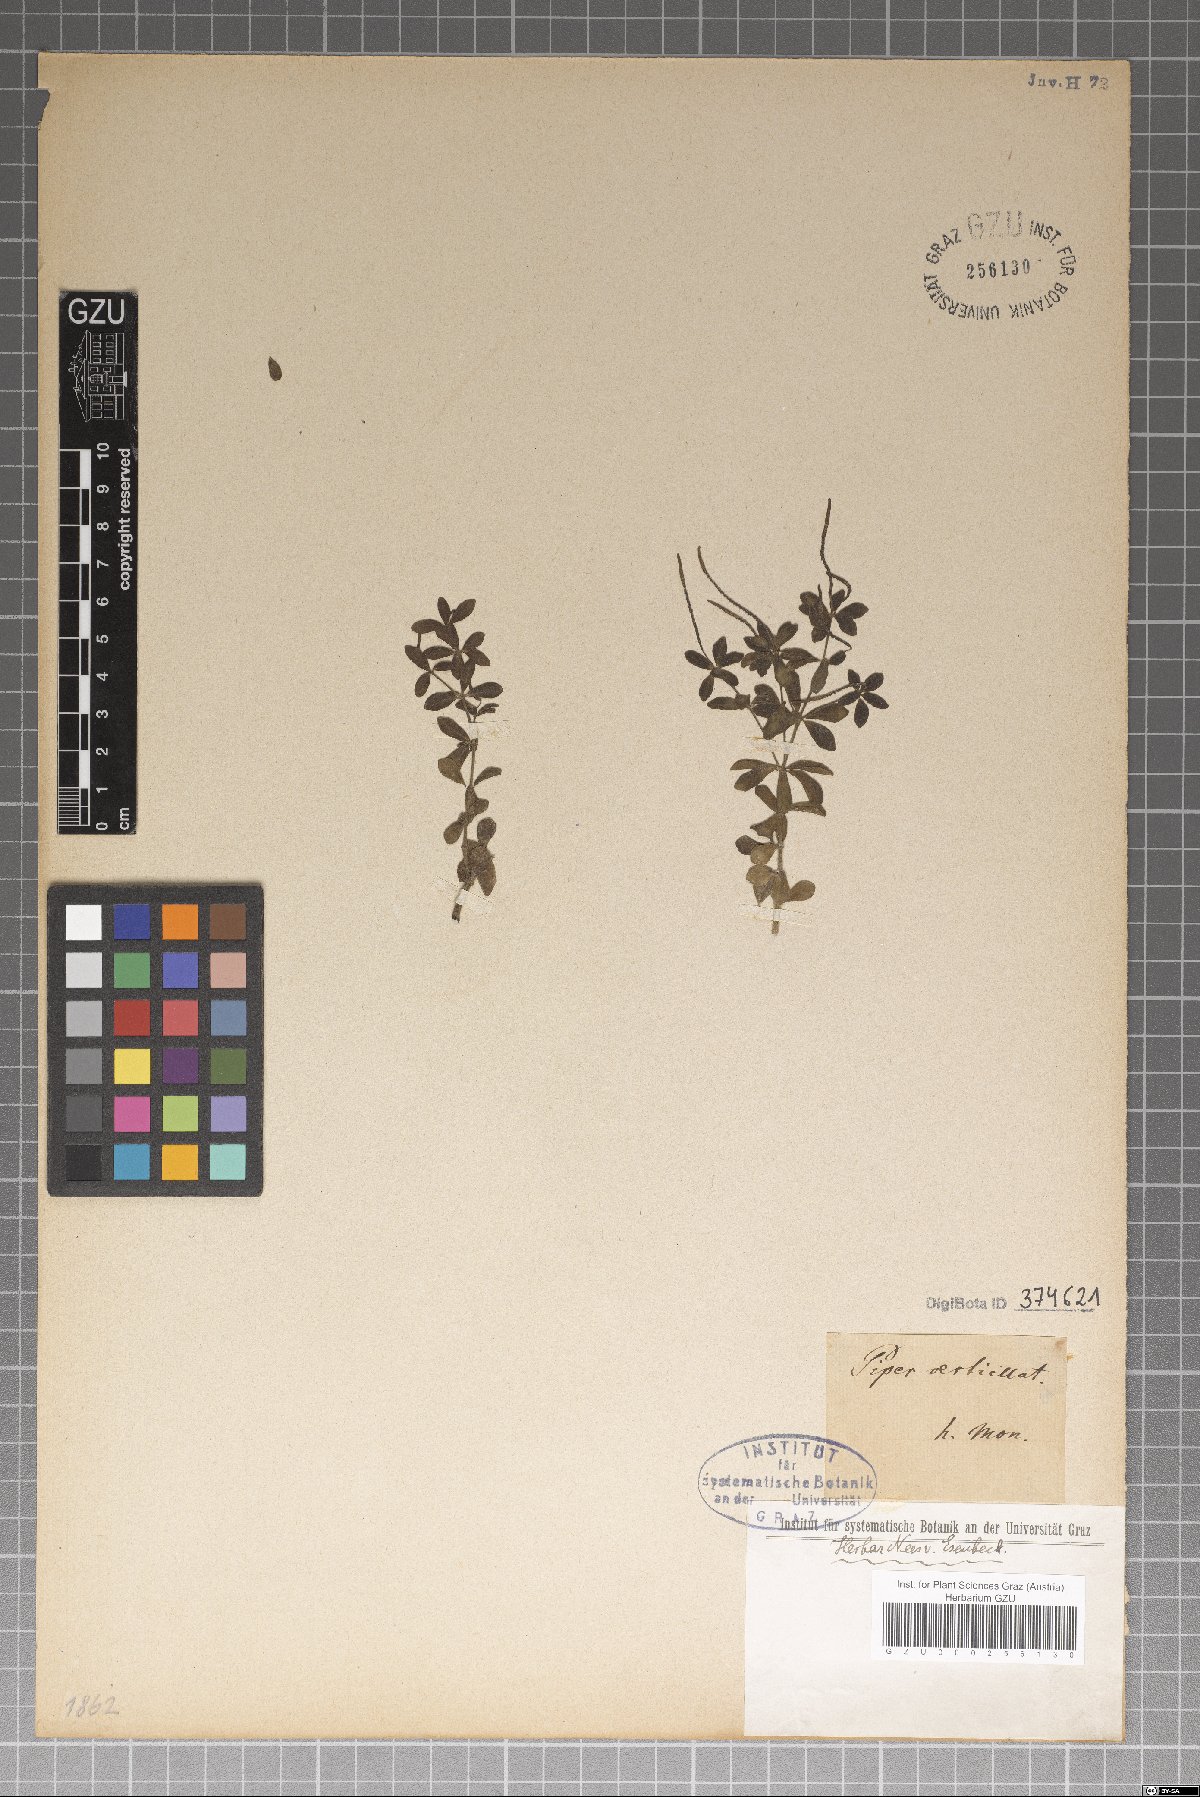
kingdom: Plantae
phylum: Tracheophyta
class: Magnoliopsida
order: Piperales
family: Piperaceae
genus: Peperomia
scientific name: Peperomia verticillata
